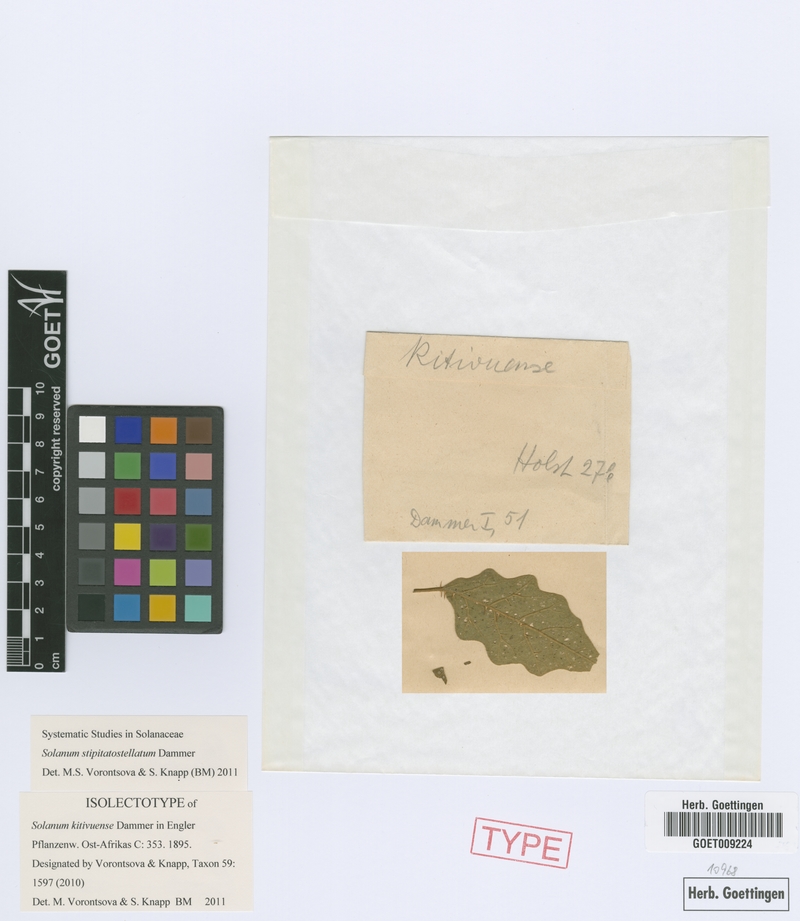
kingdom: Plantae
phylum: Tracheophyta
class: Magnoliopsida
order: Solanales
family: Solanaceae
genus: Solanum
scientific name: Solanum stipitatostellatum
